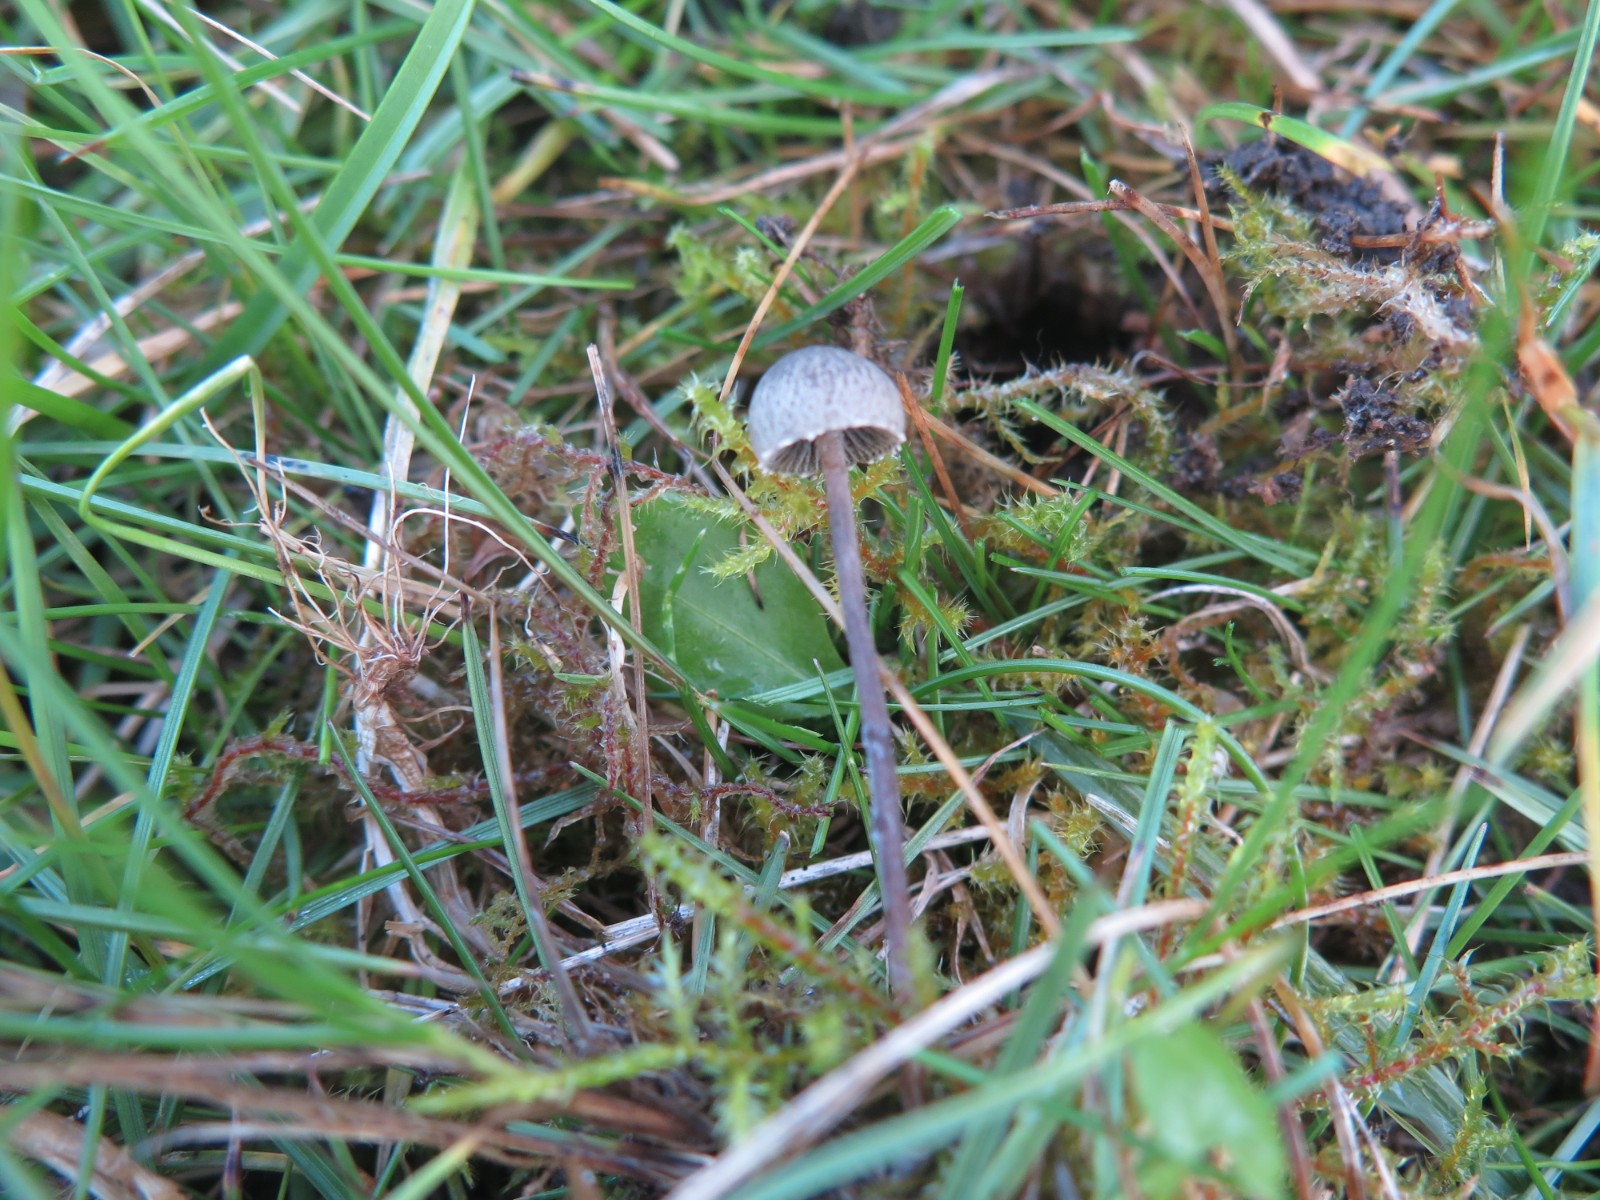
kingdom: Fungi
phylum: Basidiomycota
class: Agaricomycetes
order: Agaricales
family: Bolbitiaceae
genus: Panaeolus
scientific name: Panaeolus papilionaceus
